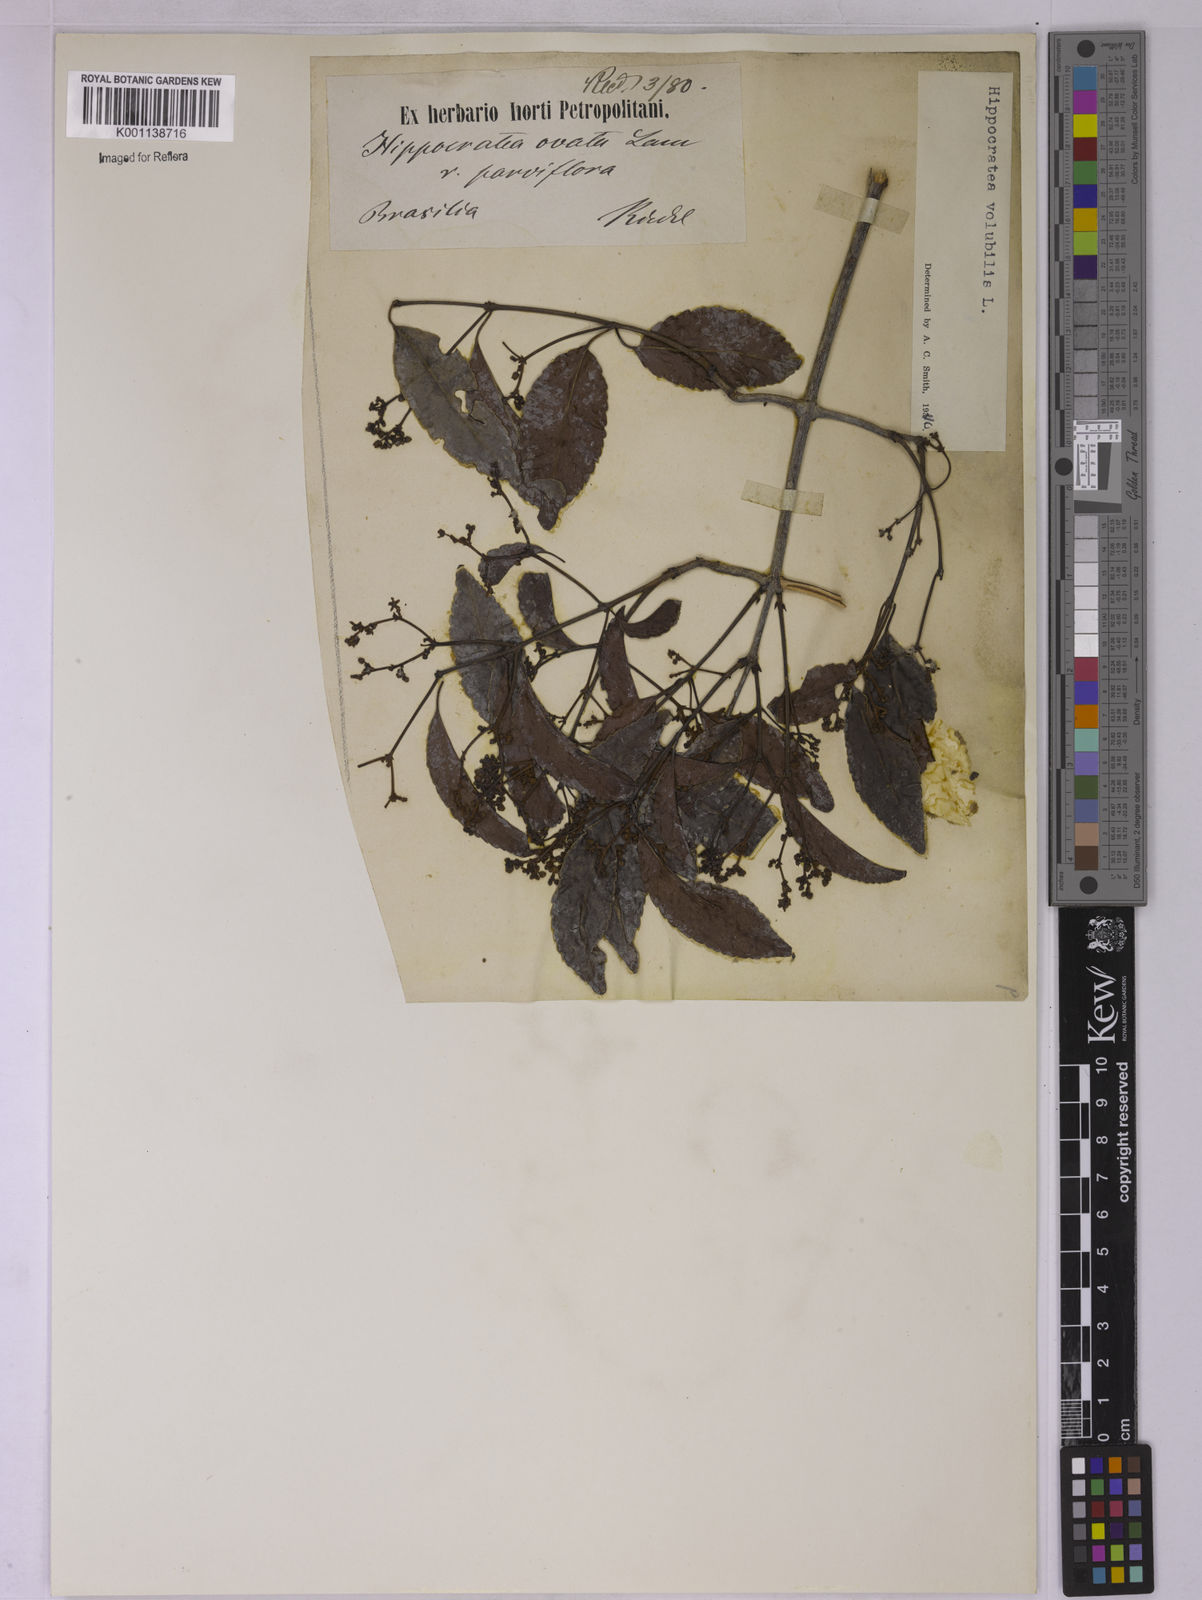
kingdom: Plantae
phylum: Tracheophyta
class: Magnoliopsida
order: Celastrales
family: Celastraceae
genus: Hippocratea
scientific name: Hippocratea volubilis
